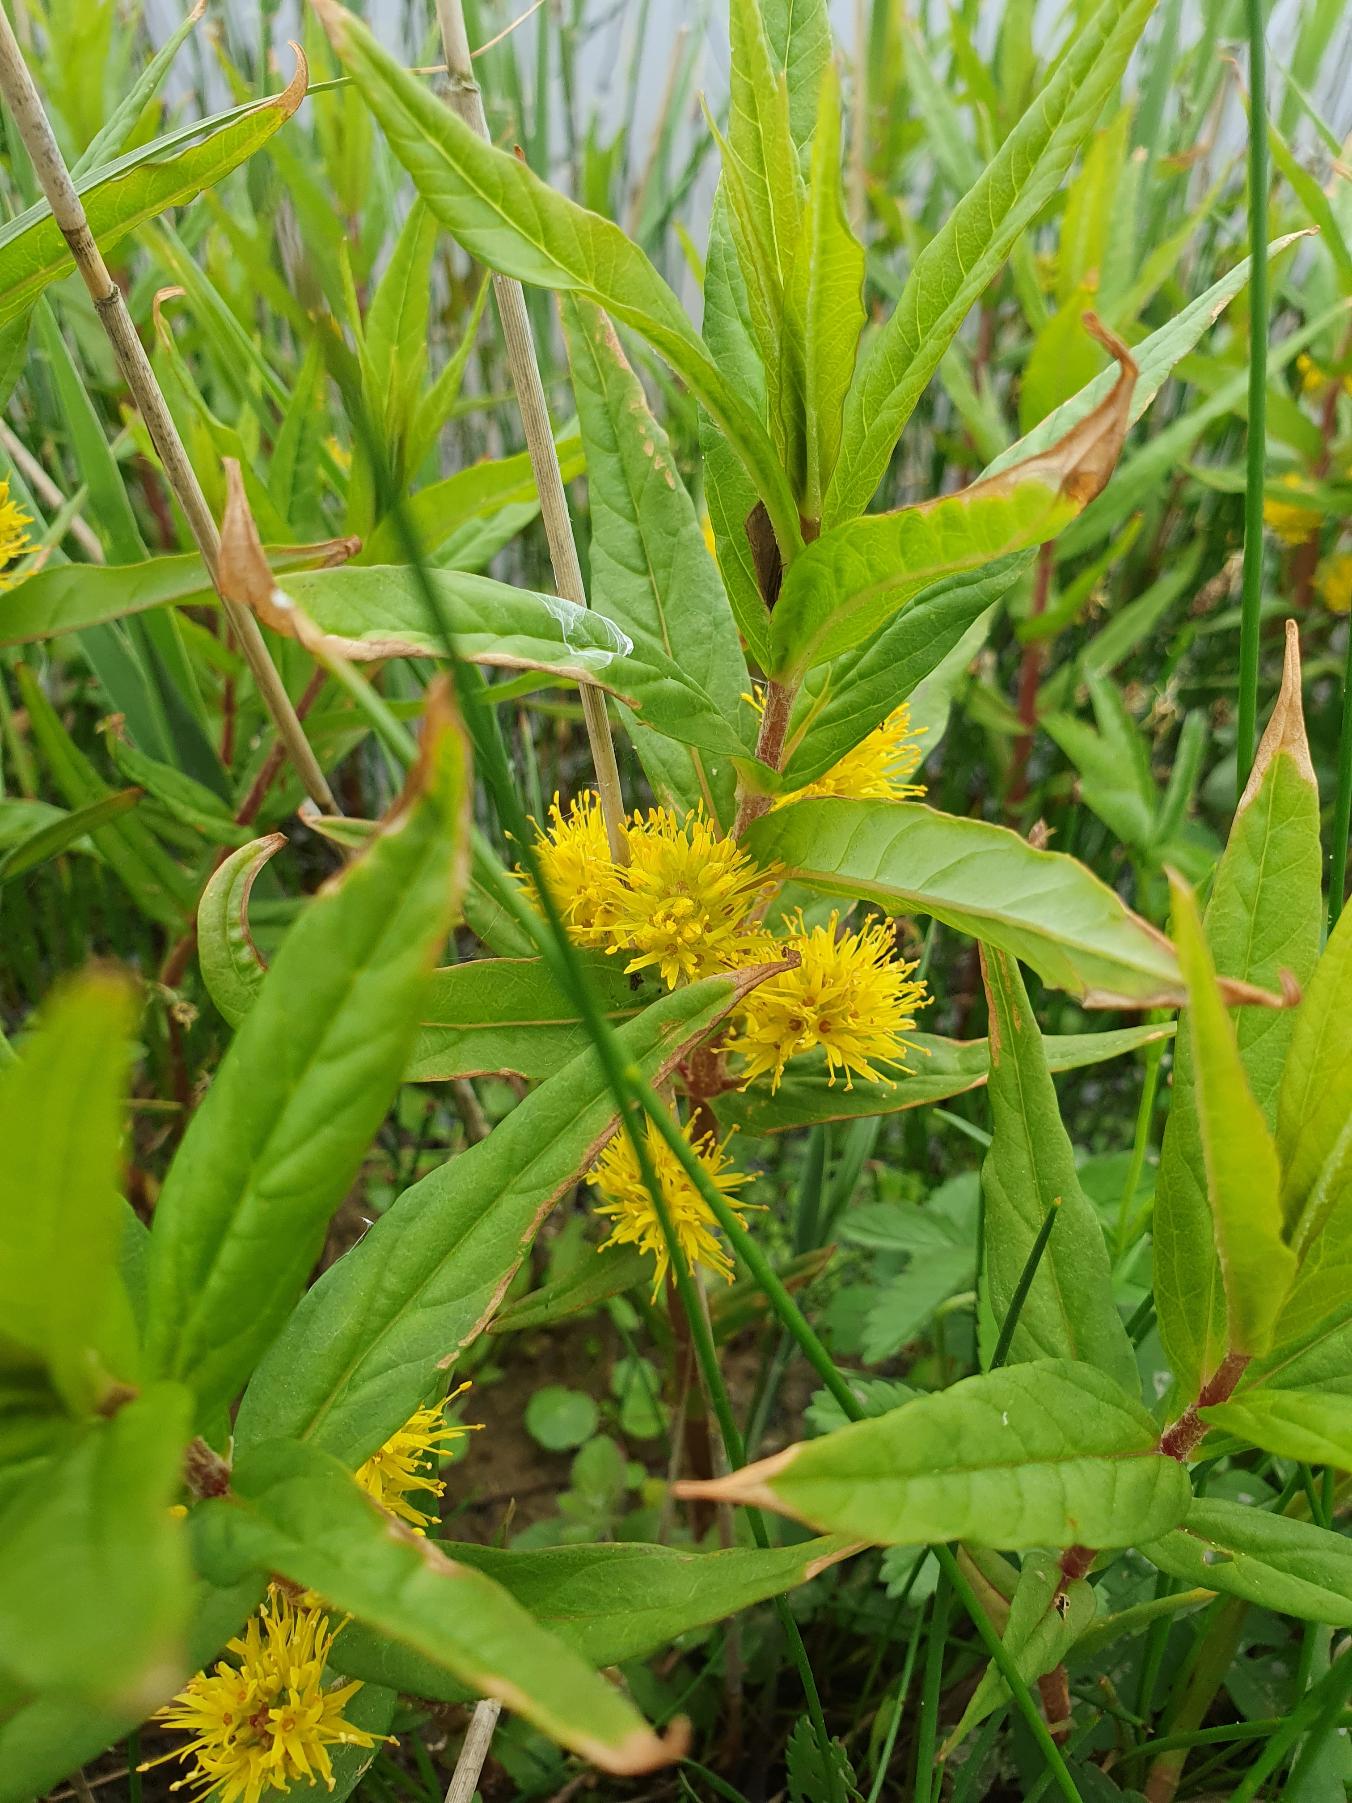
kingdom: Plantae
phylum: Tracheophyta
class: Magnoliopsida
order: Ericales
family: Primulaceae
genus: Lysimachia
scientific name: Lysimachia thyrsiflora
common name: Dusk-fredløs
